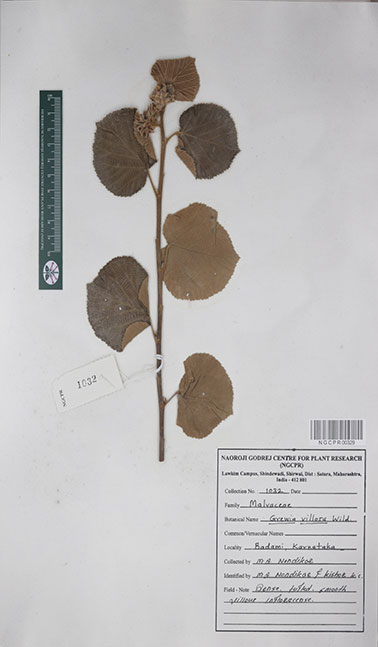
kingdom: Plantae
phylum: Tracheophyta
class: Magnoliopsida
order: Malvales
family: Malvaceae
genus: Grewia
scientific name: Grewia villosa
